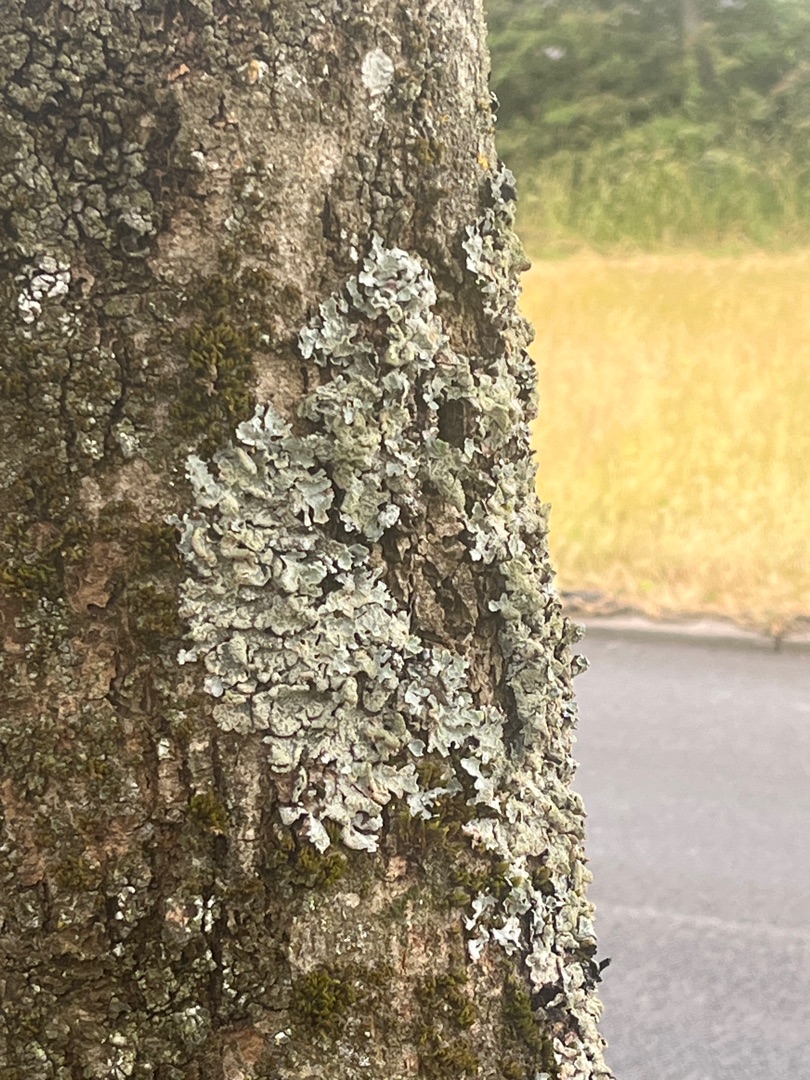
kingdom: Fungi
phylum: Ascomycota
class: Lecanoromycetes
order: Lecanorales
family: Parmeliaceae
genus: Parmelia
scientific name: Parmelia sulcata
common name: Rynket skållav
